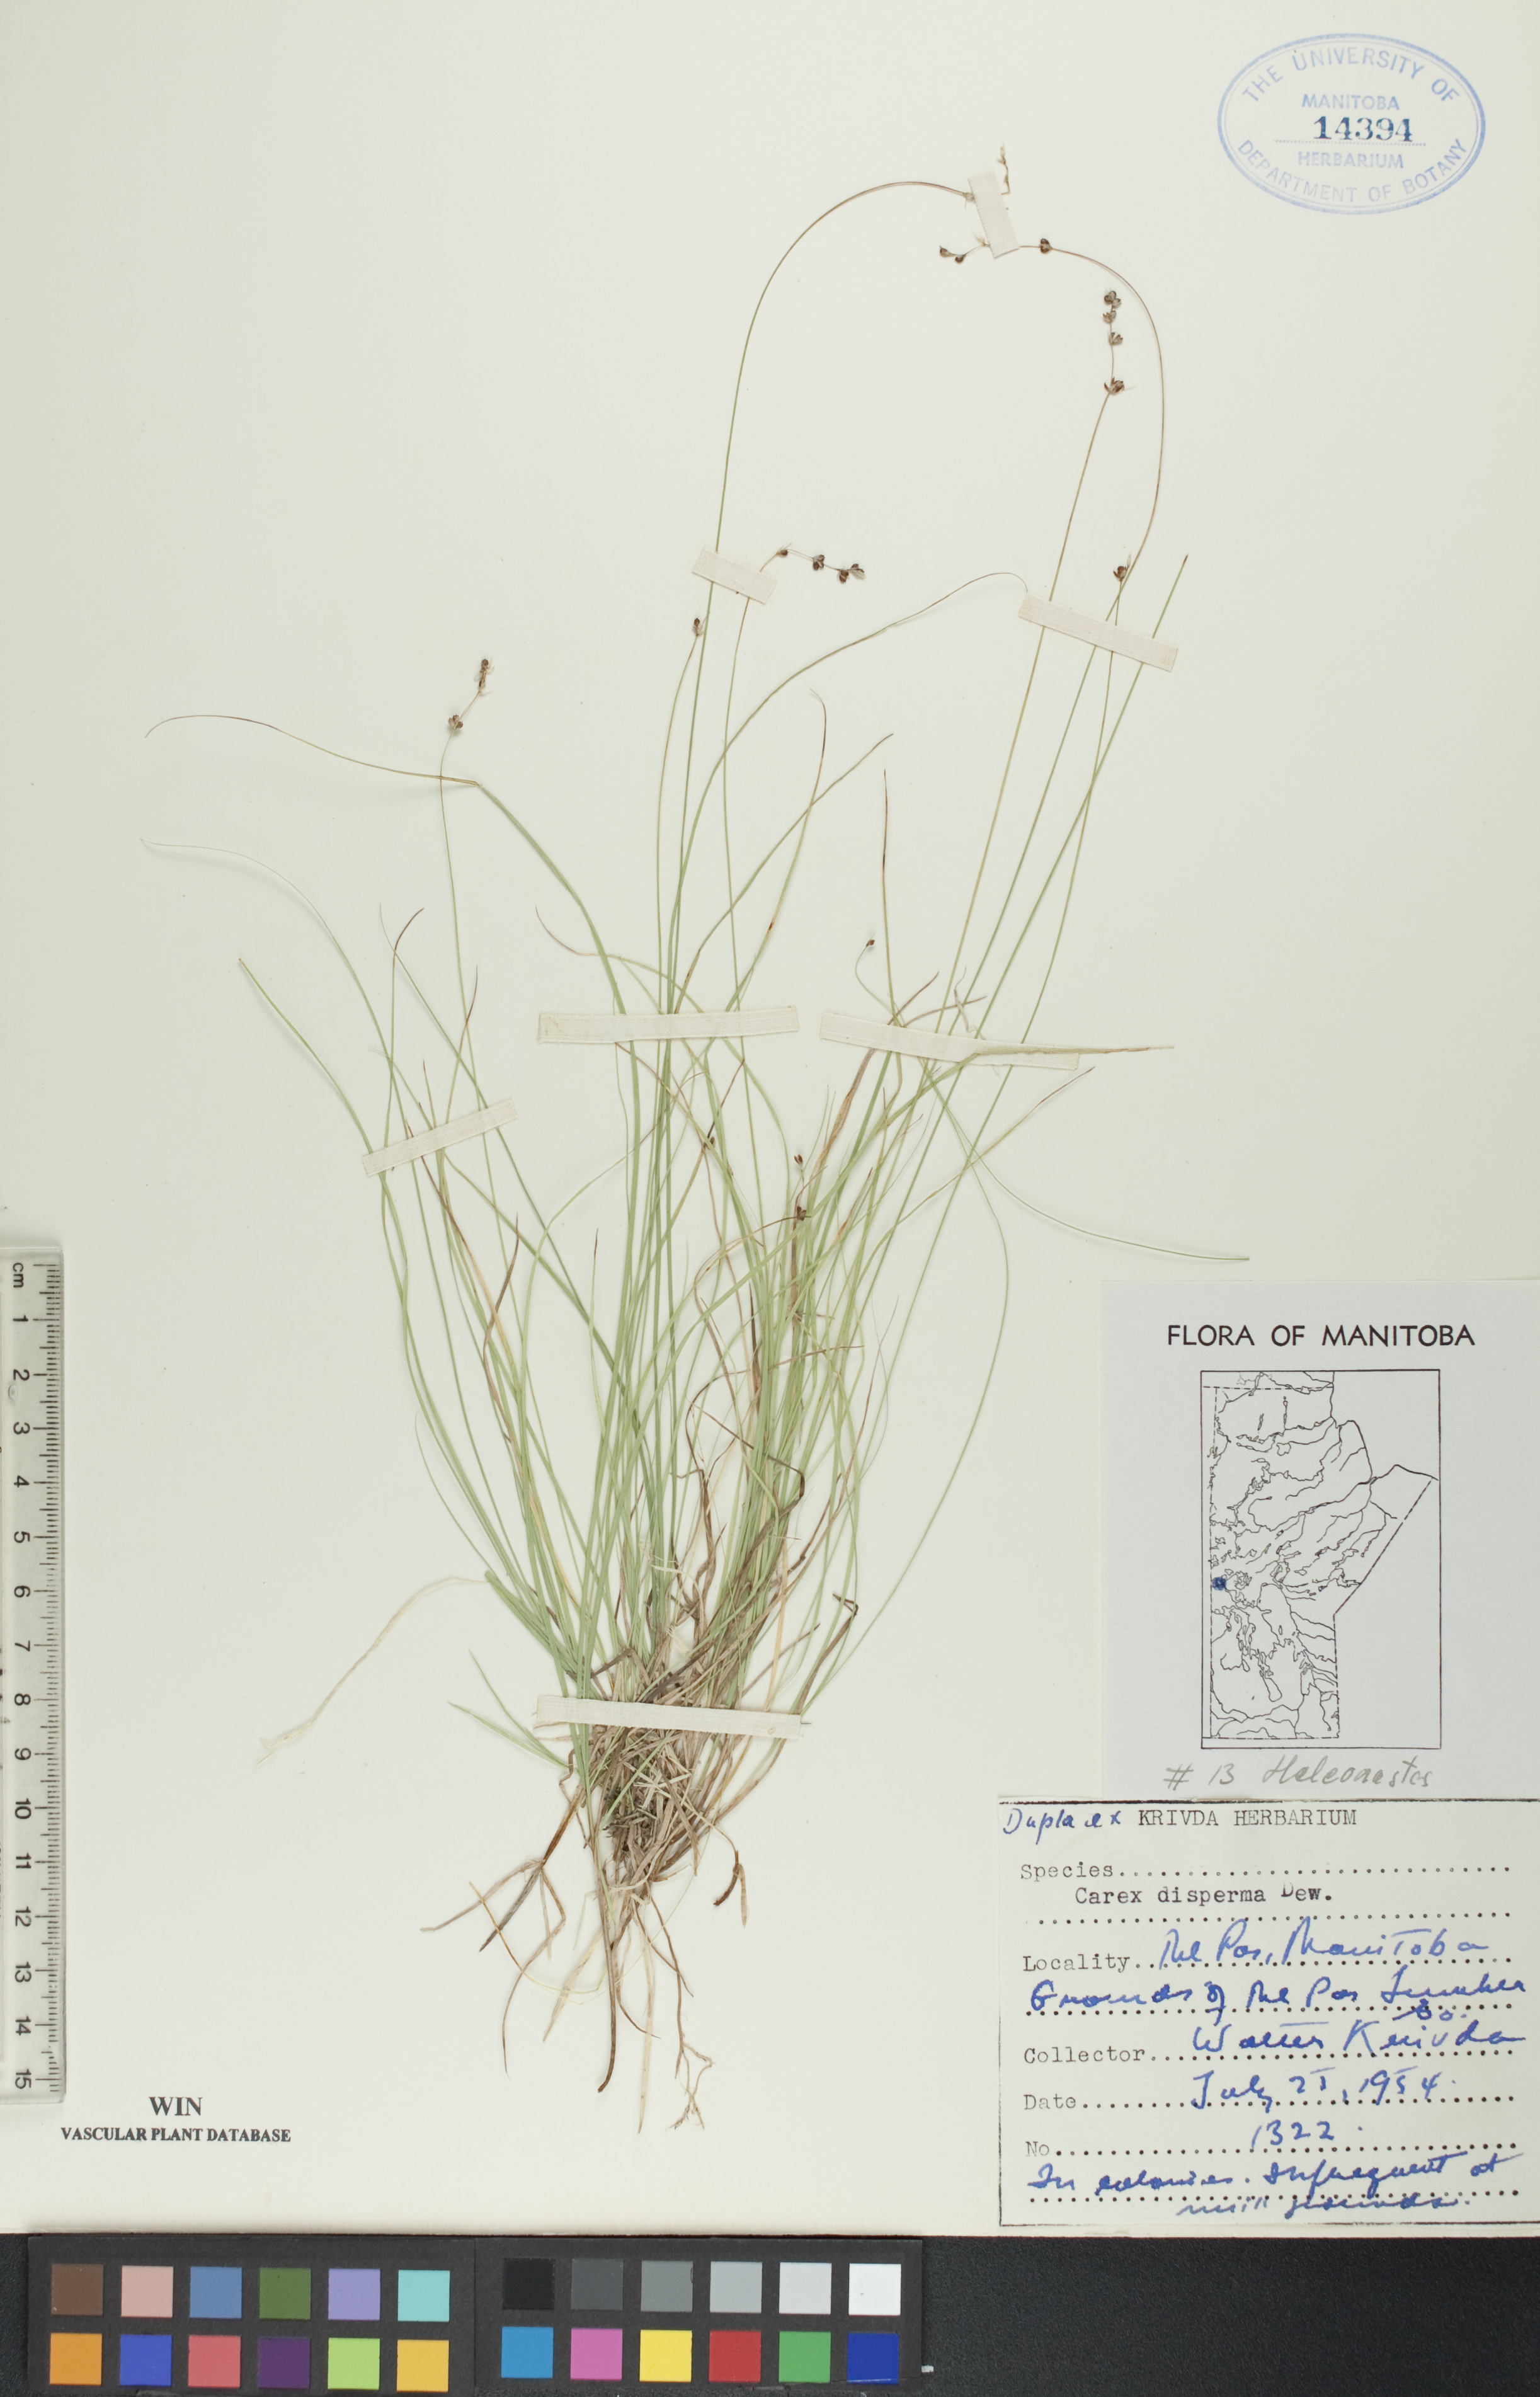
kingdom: Plantae
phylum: Tracheophyta
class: Liliopsida
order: Poales
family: Cyperaceae
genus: Carex
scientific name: Carex disperma
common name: Short-leaved sedge
